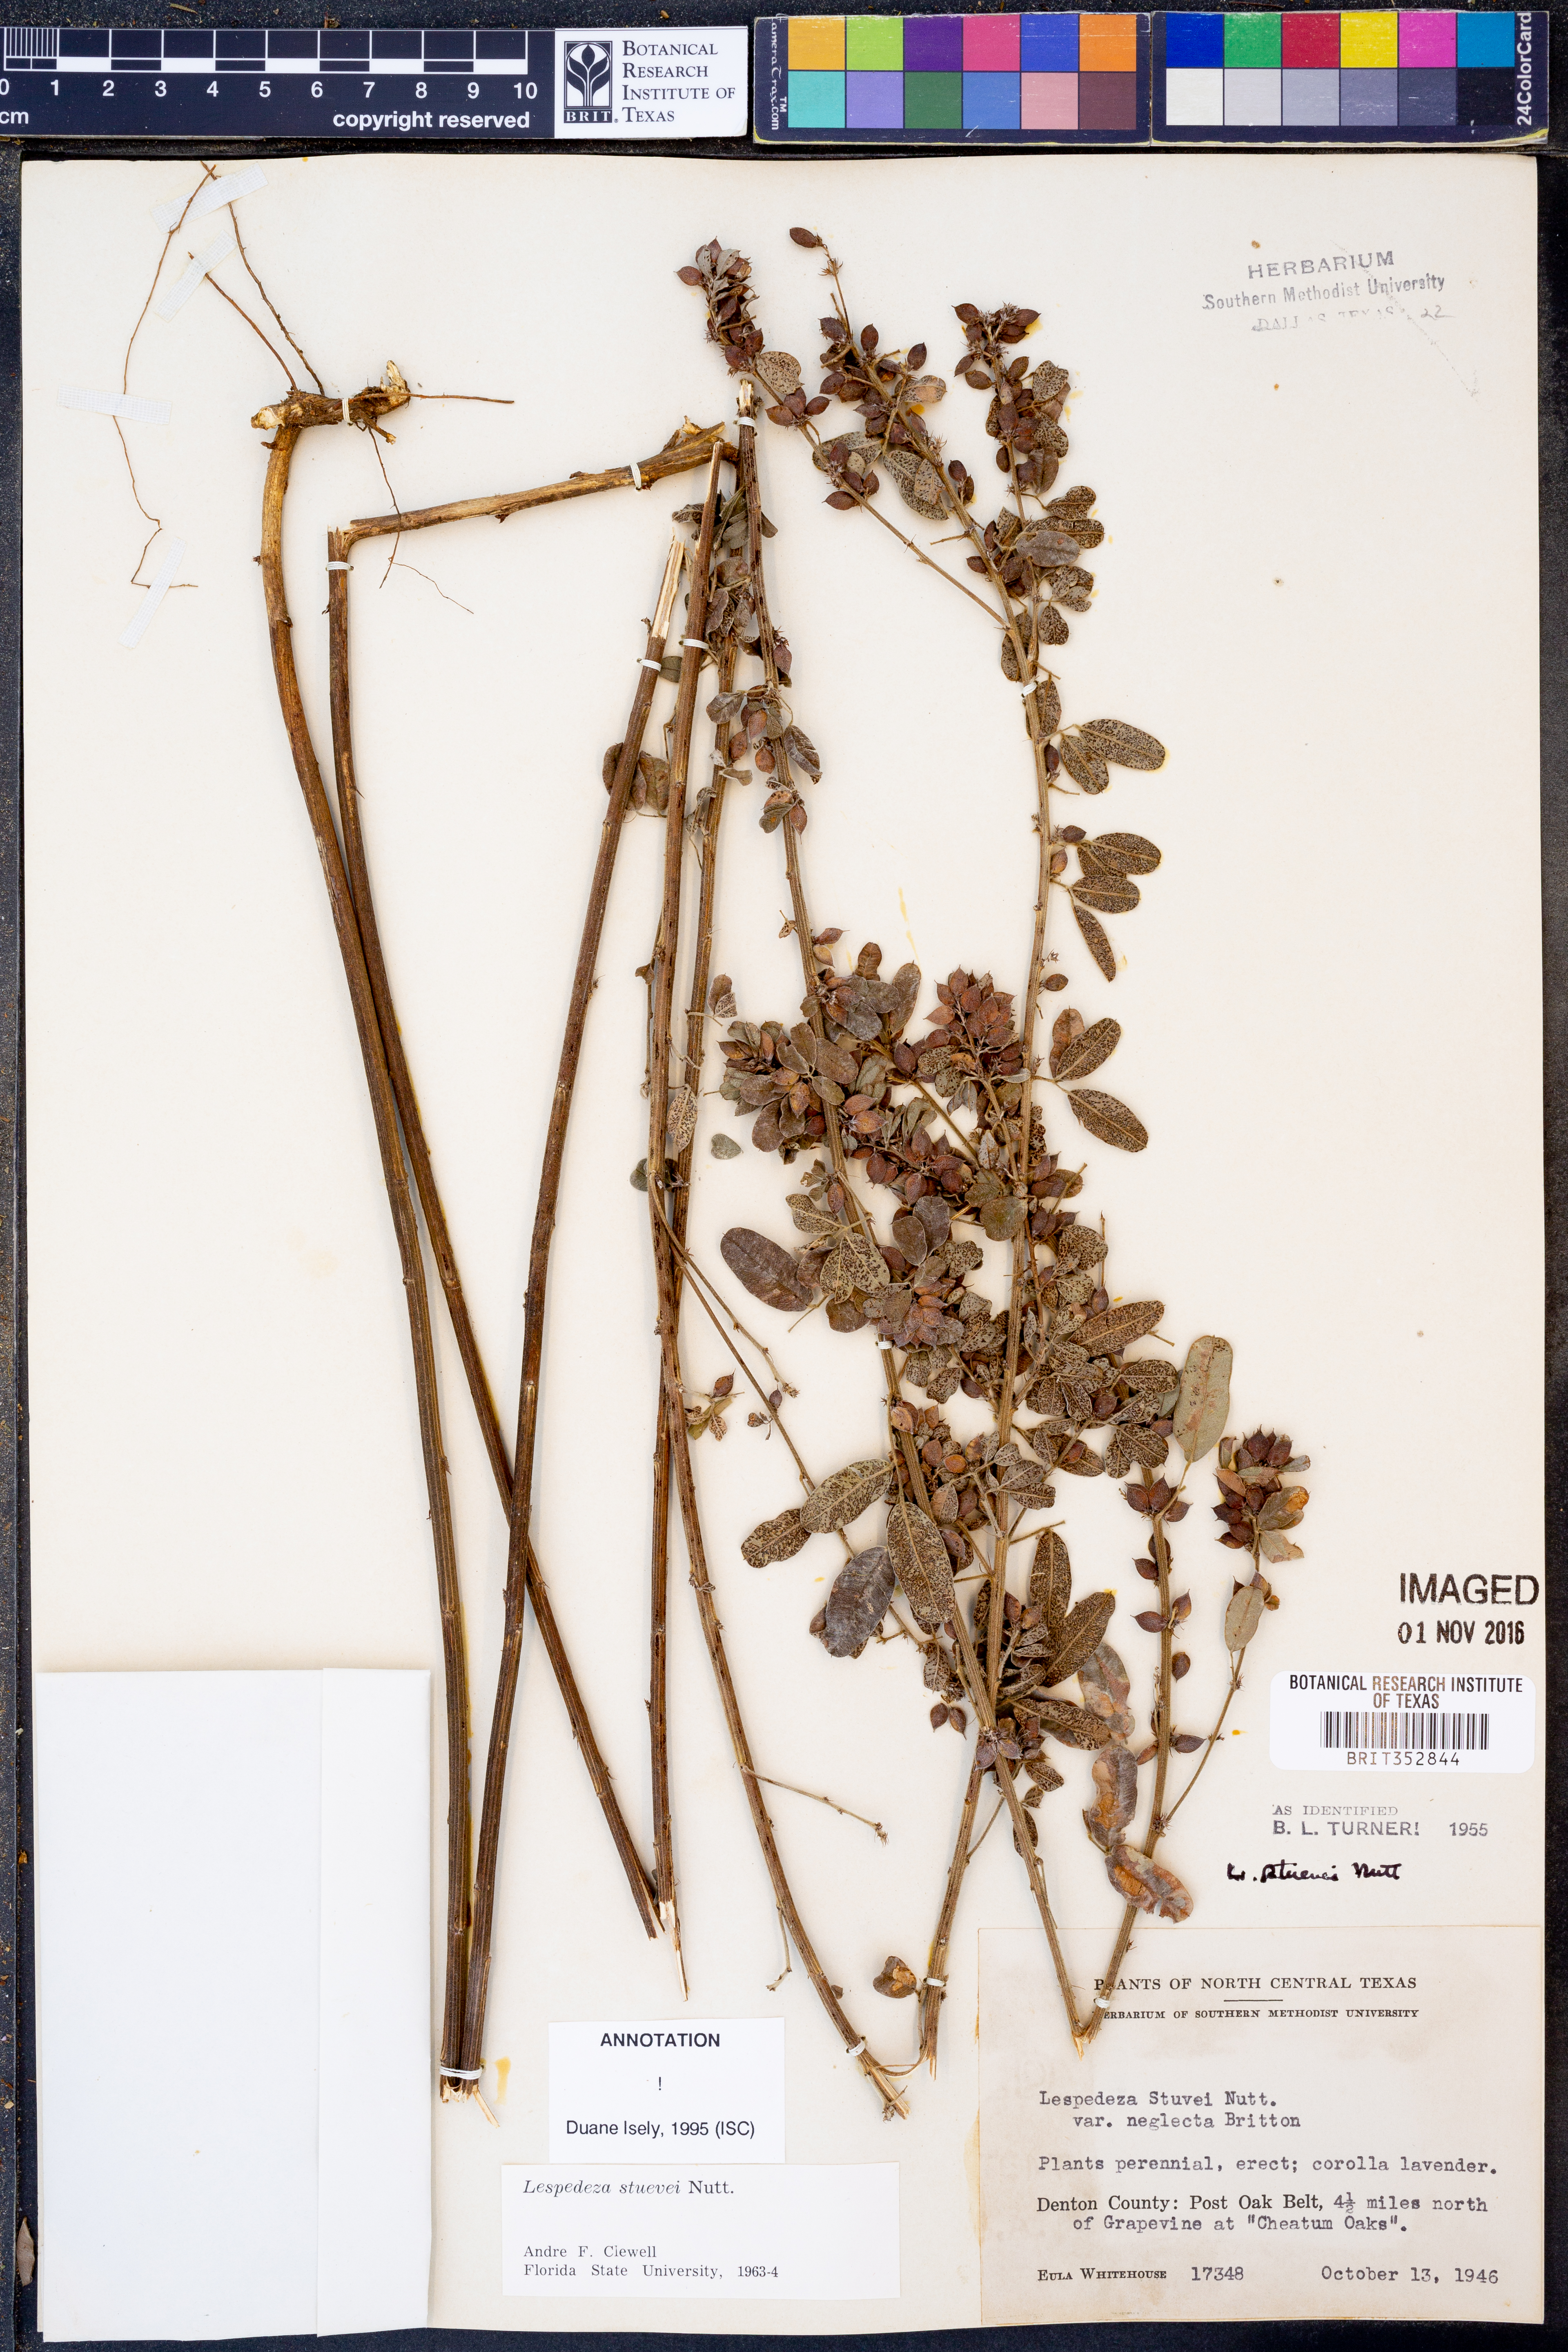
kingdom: Plantae
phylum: Tracheophyta
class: Magnoliopsida
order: Fabales
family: Fabaceae
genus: Lespedeza
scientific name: Lespedeza stuevei
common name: Tall bush-clover
